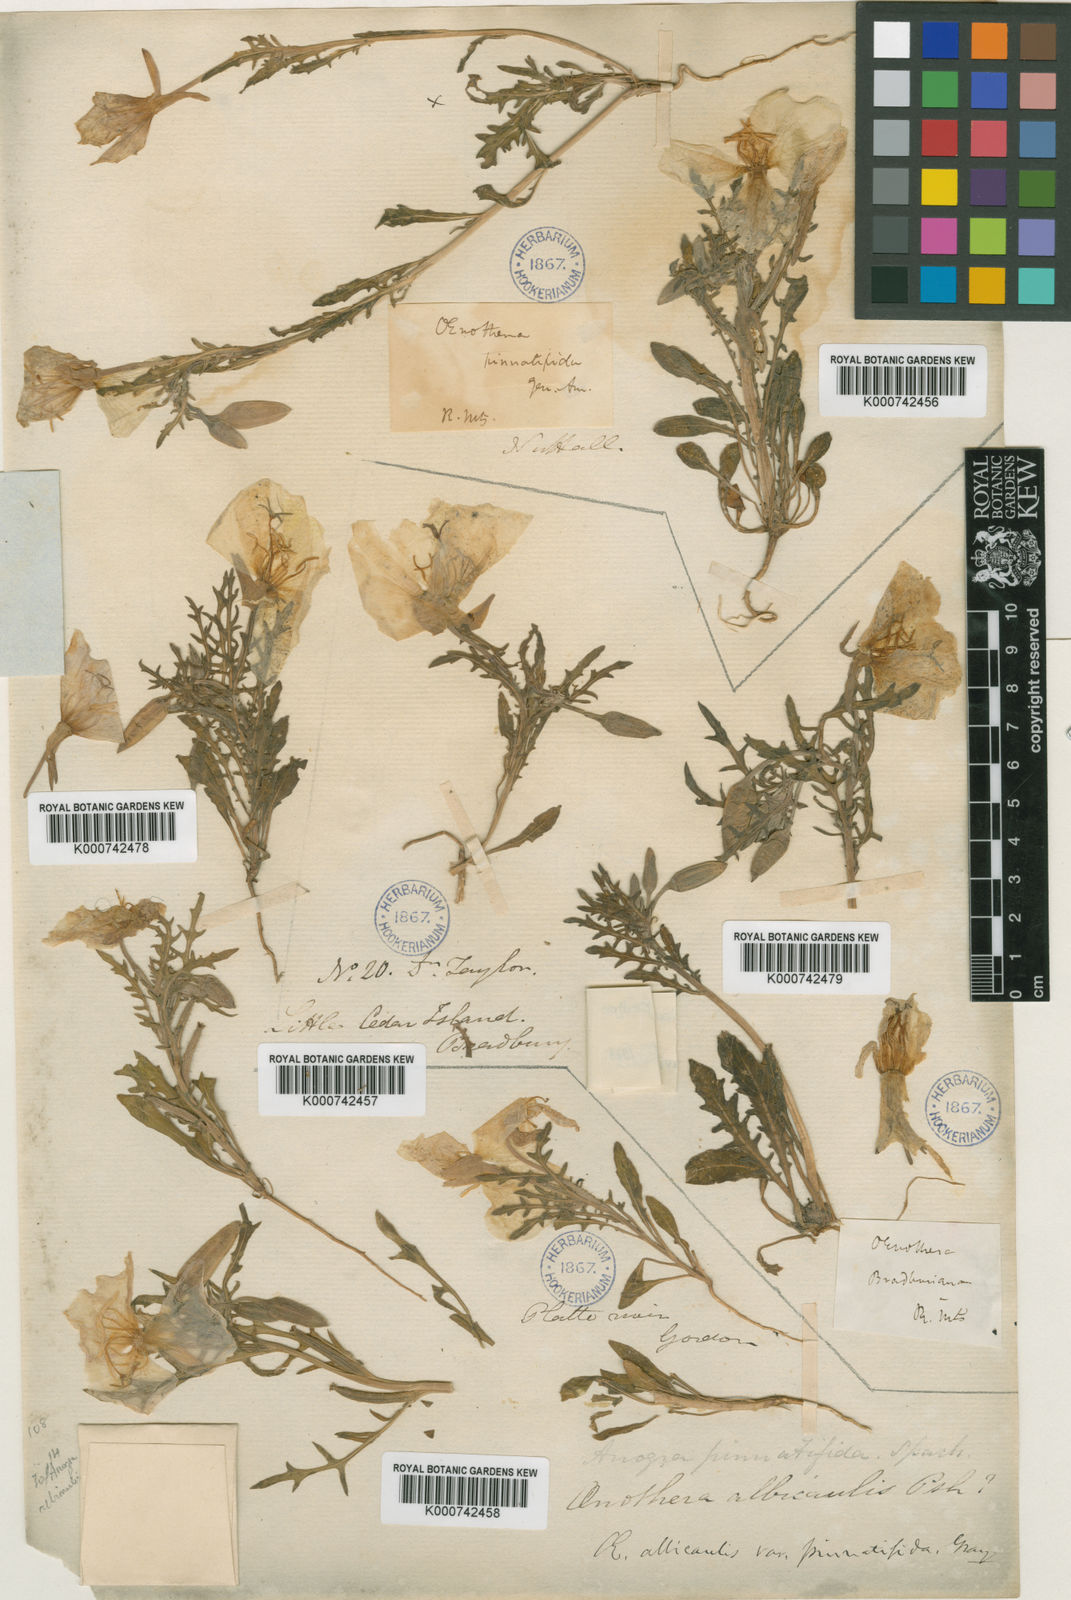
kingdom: Plantae
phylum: Tracheophyta
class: Magnoliopsida
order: Myrtales
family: Onagraceae
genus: Oenothera
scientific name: Oenothera albicaulis
